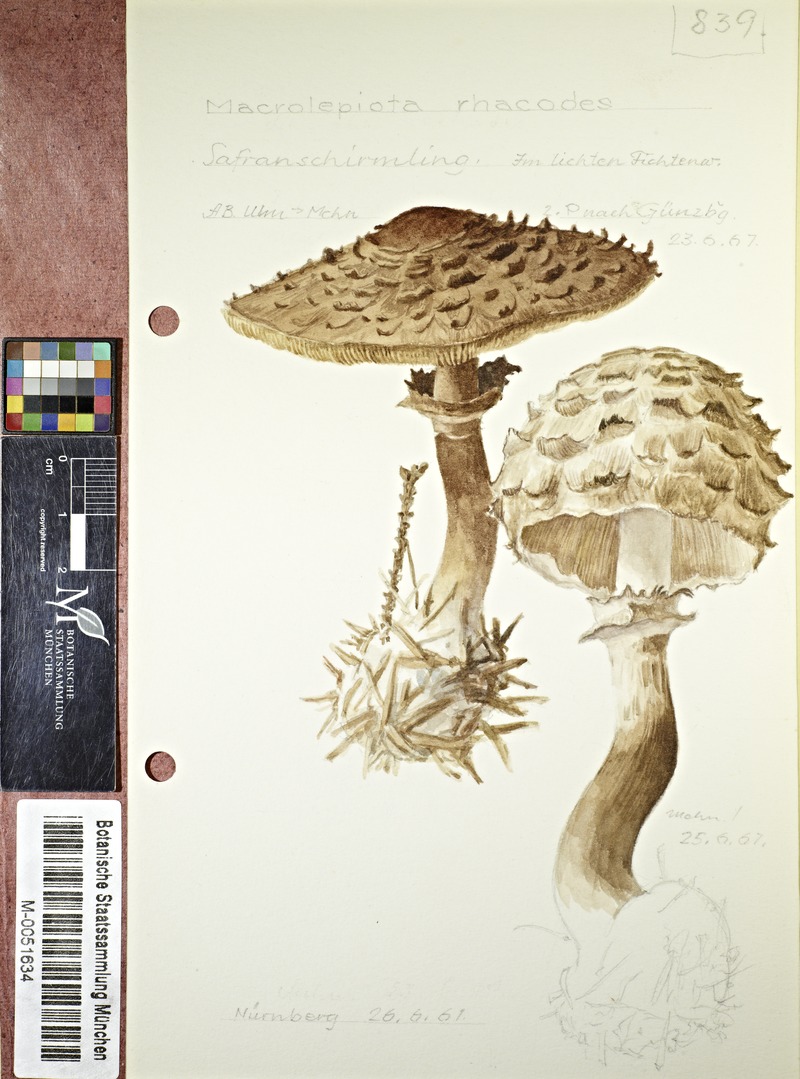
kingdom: Fungi
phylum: Basidiomycota
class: Agaricomycetes
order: Agaricales
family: Agaricaceae
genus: Chlorophyllum
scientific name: Chlorophyllum rhacodes
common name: Shaggy parasol
